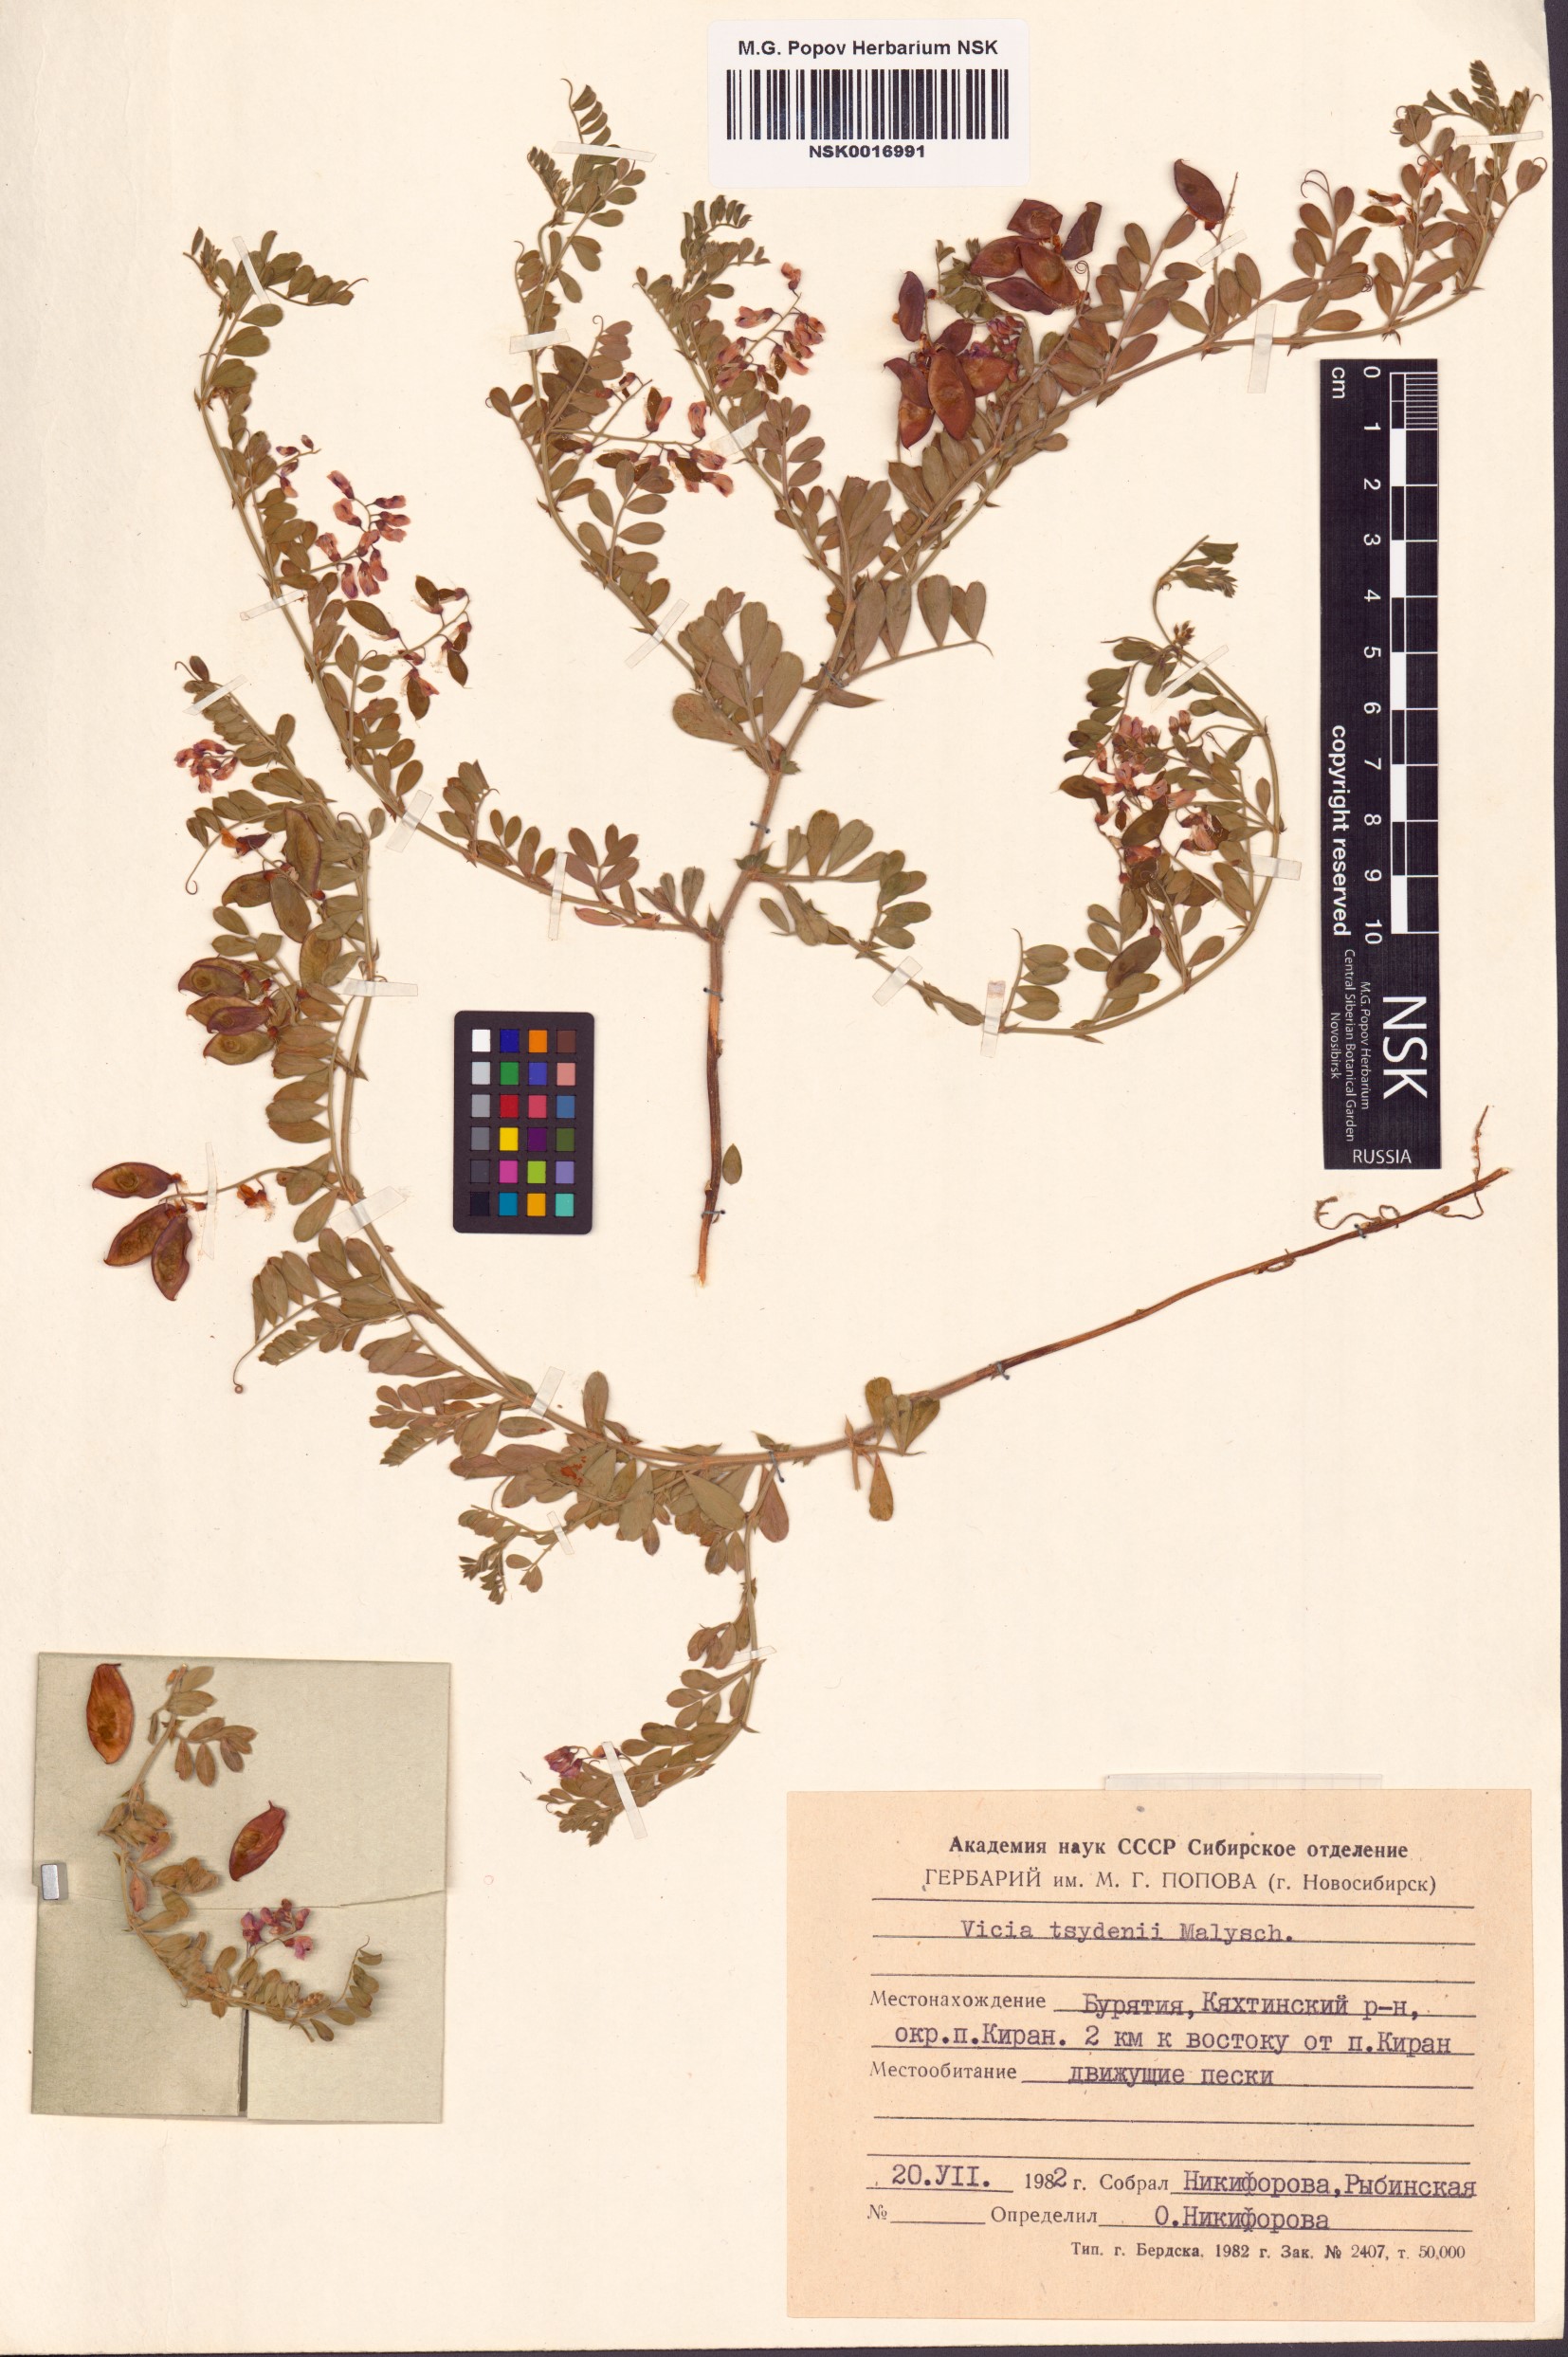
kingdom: Plantae
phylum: Tracheophyta
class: Magnoliopsida
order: Fabales
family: Fabaceae
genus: Vicia
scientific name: Vicia tsydenii
